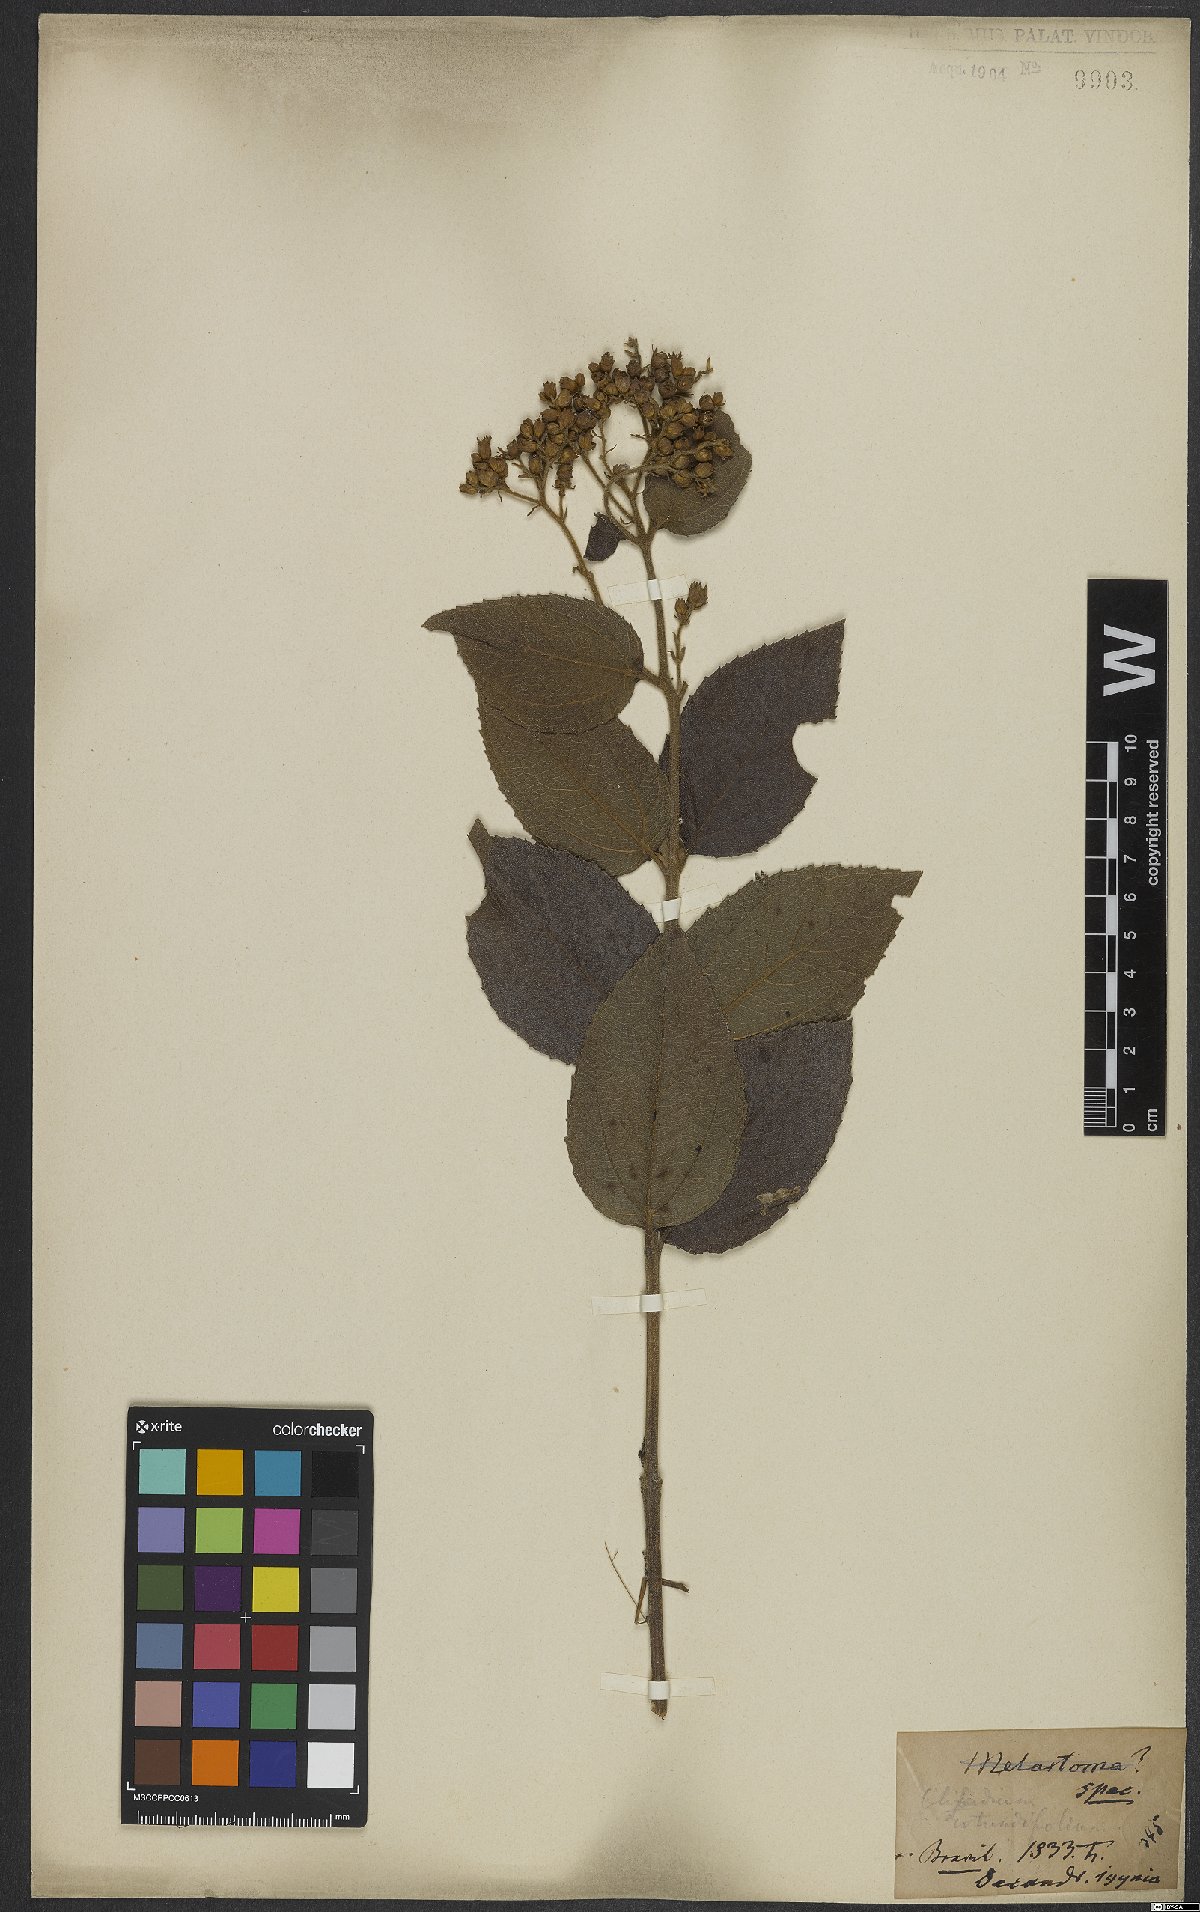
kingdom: Plantae
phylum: Tracheophyta
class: Magnoliopsida
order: Asterales
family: Asteraceae
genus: Clibadium
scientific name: Clibadium armanii
